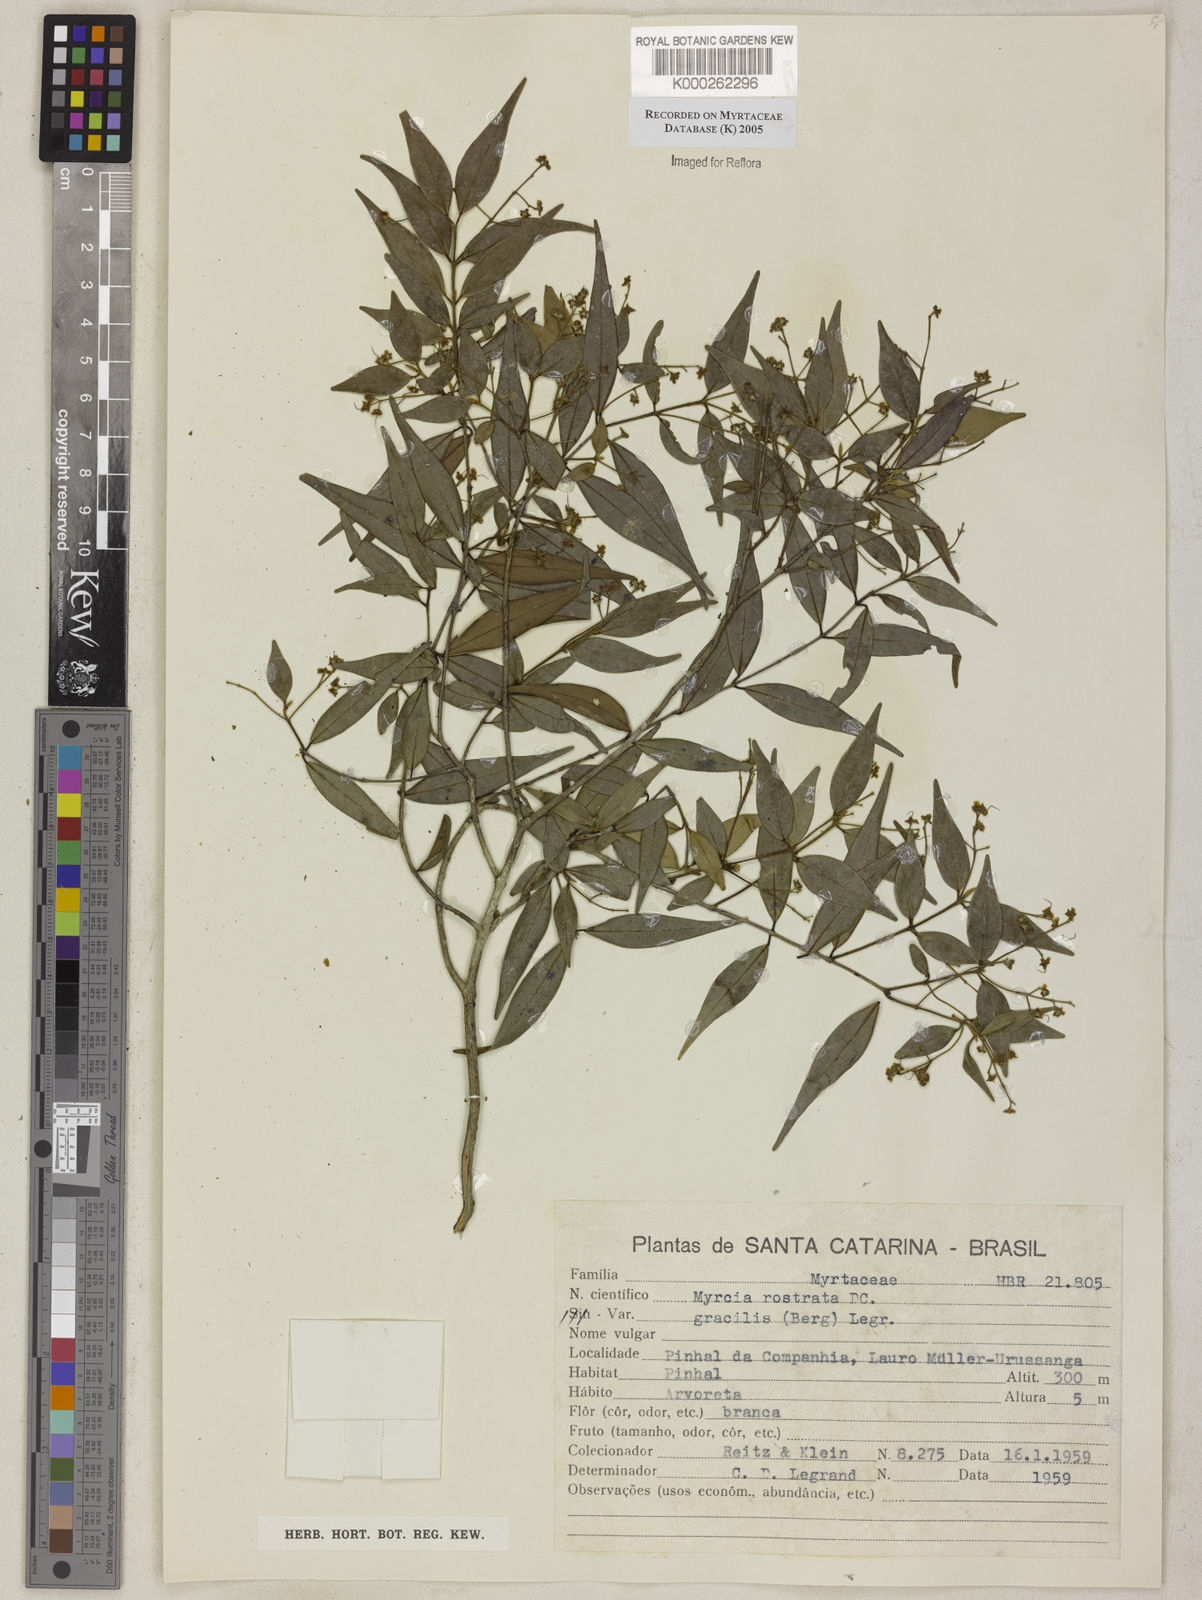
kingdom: Plantae
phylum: Tracheophyta
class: Magnoliopsida
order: Myrtales
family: Myrtaceae
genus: Myrcia
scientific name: Myrcia splendens
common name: Surinam cherry
